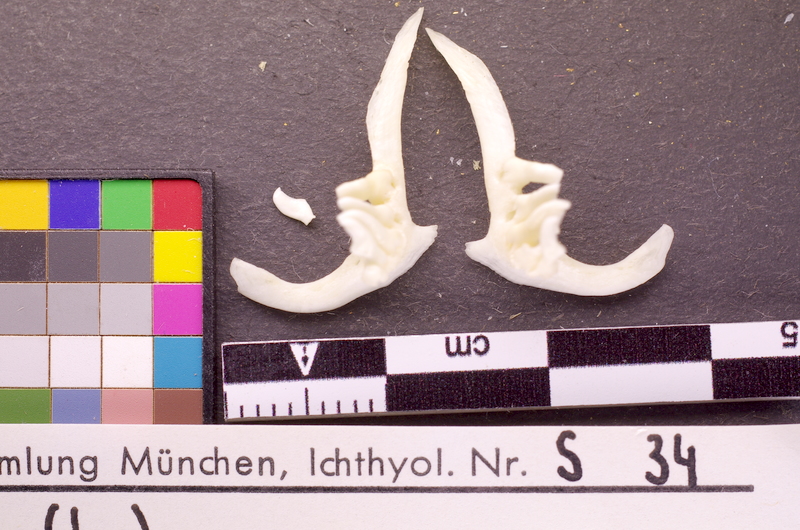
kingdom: Animalia
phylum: Chordata
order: Cypriniformes
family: Cyprinidae
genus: Abramis
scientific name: Abramis brama
